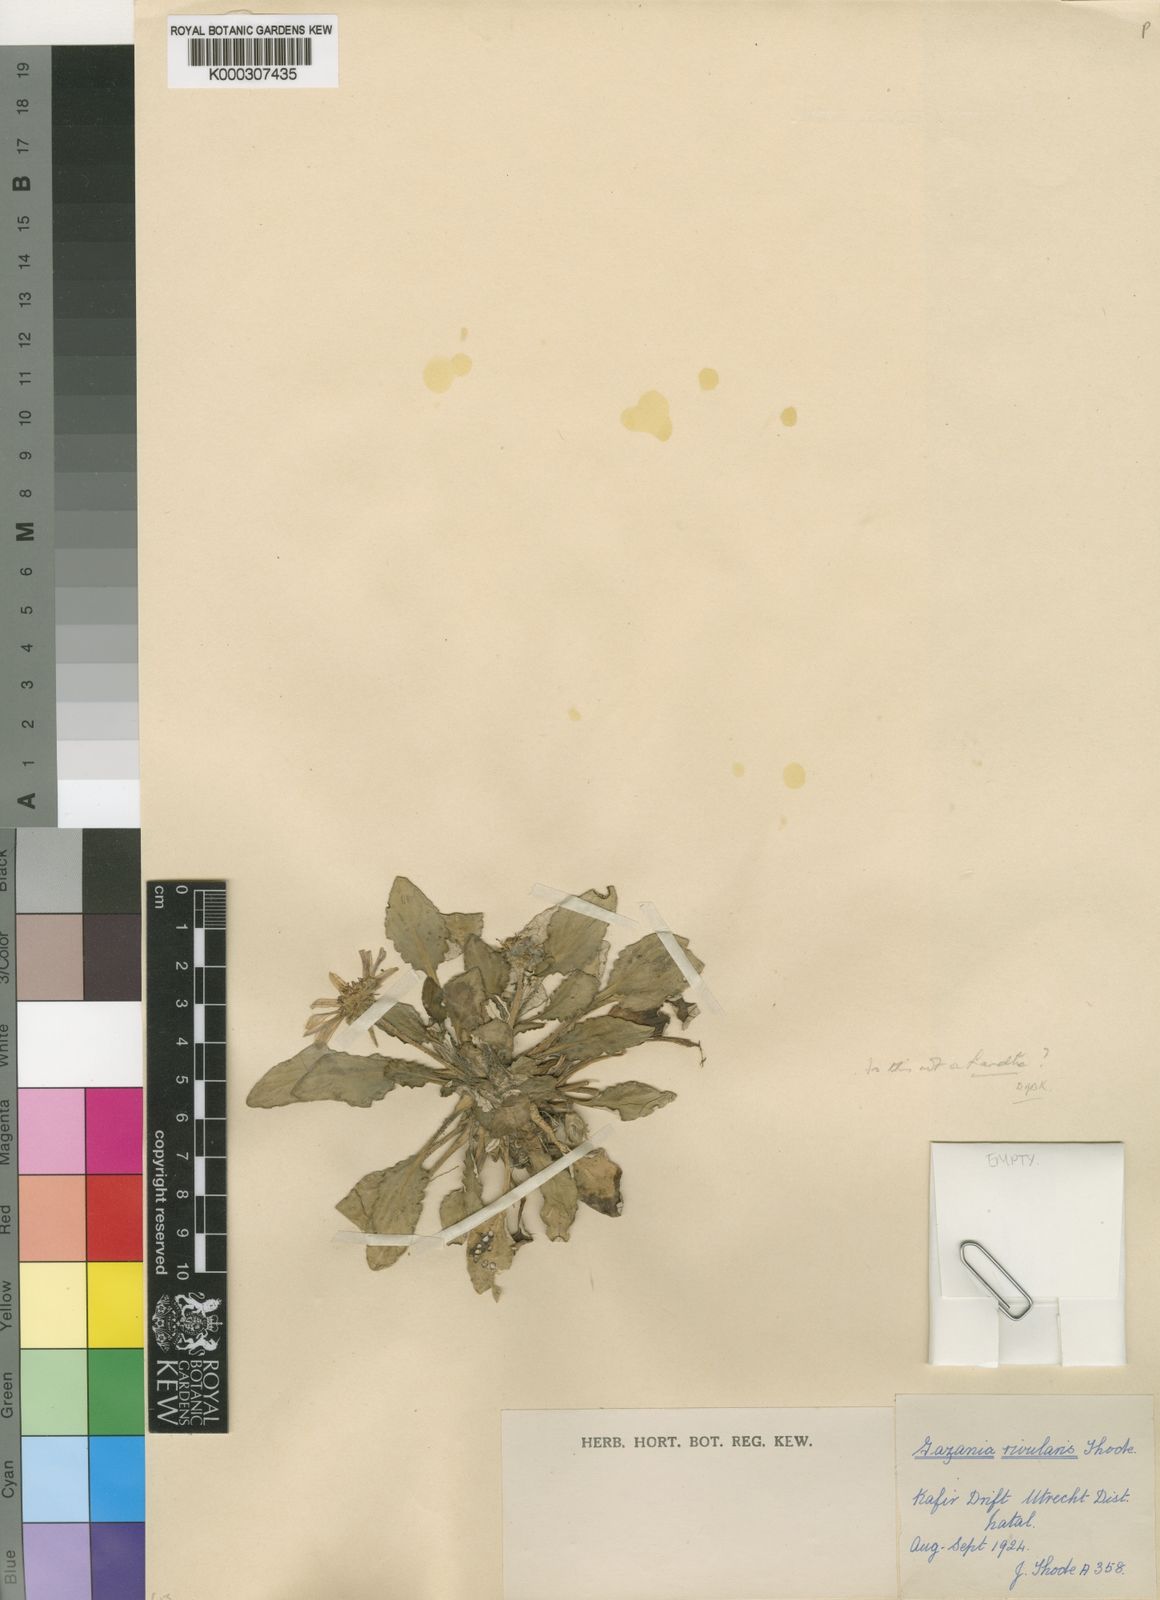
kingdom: Plantae
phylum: Tracheophyta
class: Magnoliopsida
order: Asterales
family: Asteraceae
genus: Arctotis
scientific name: Arctotis
